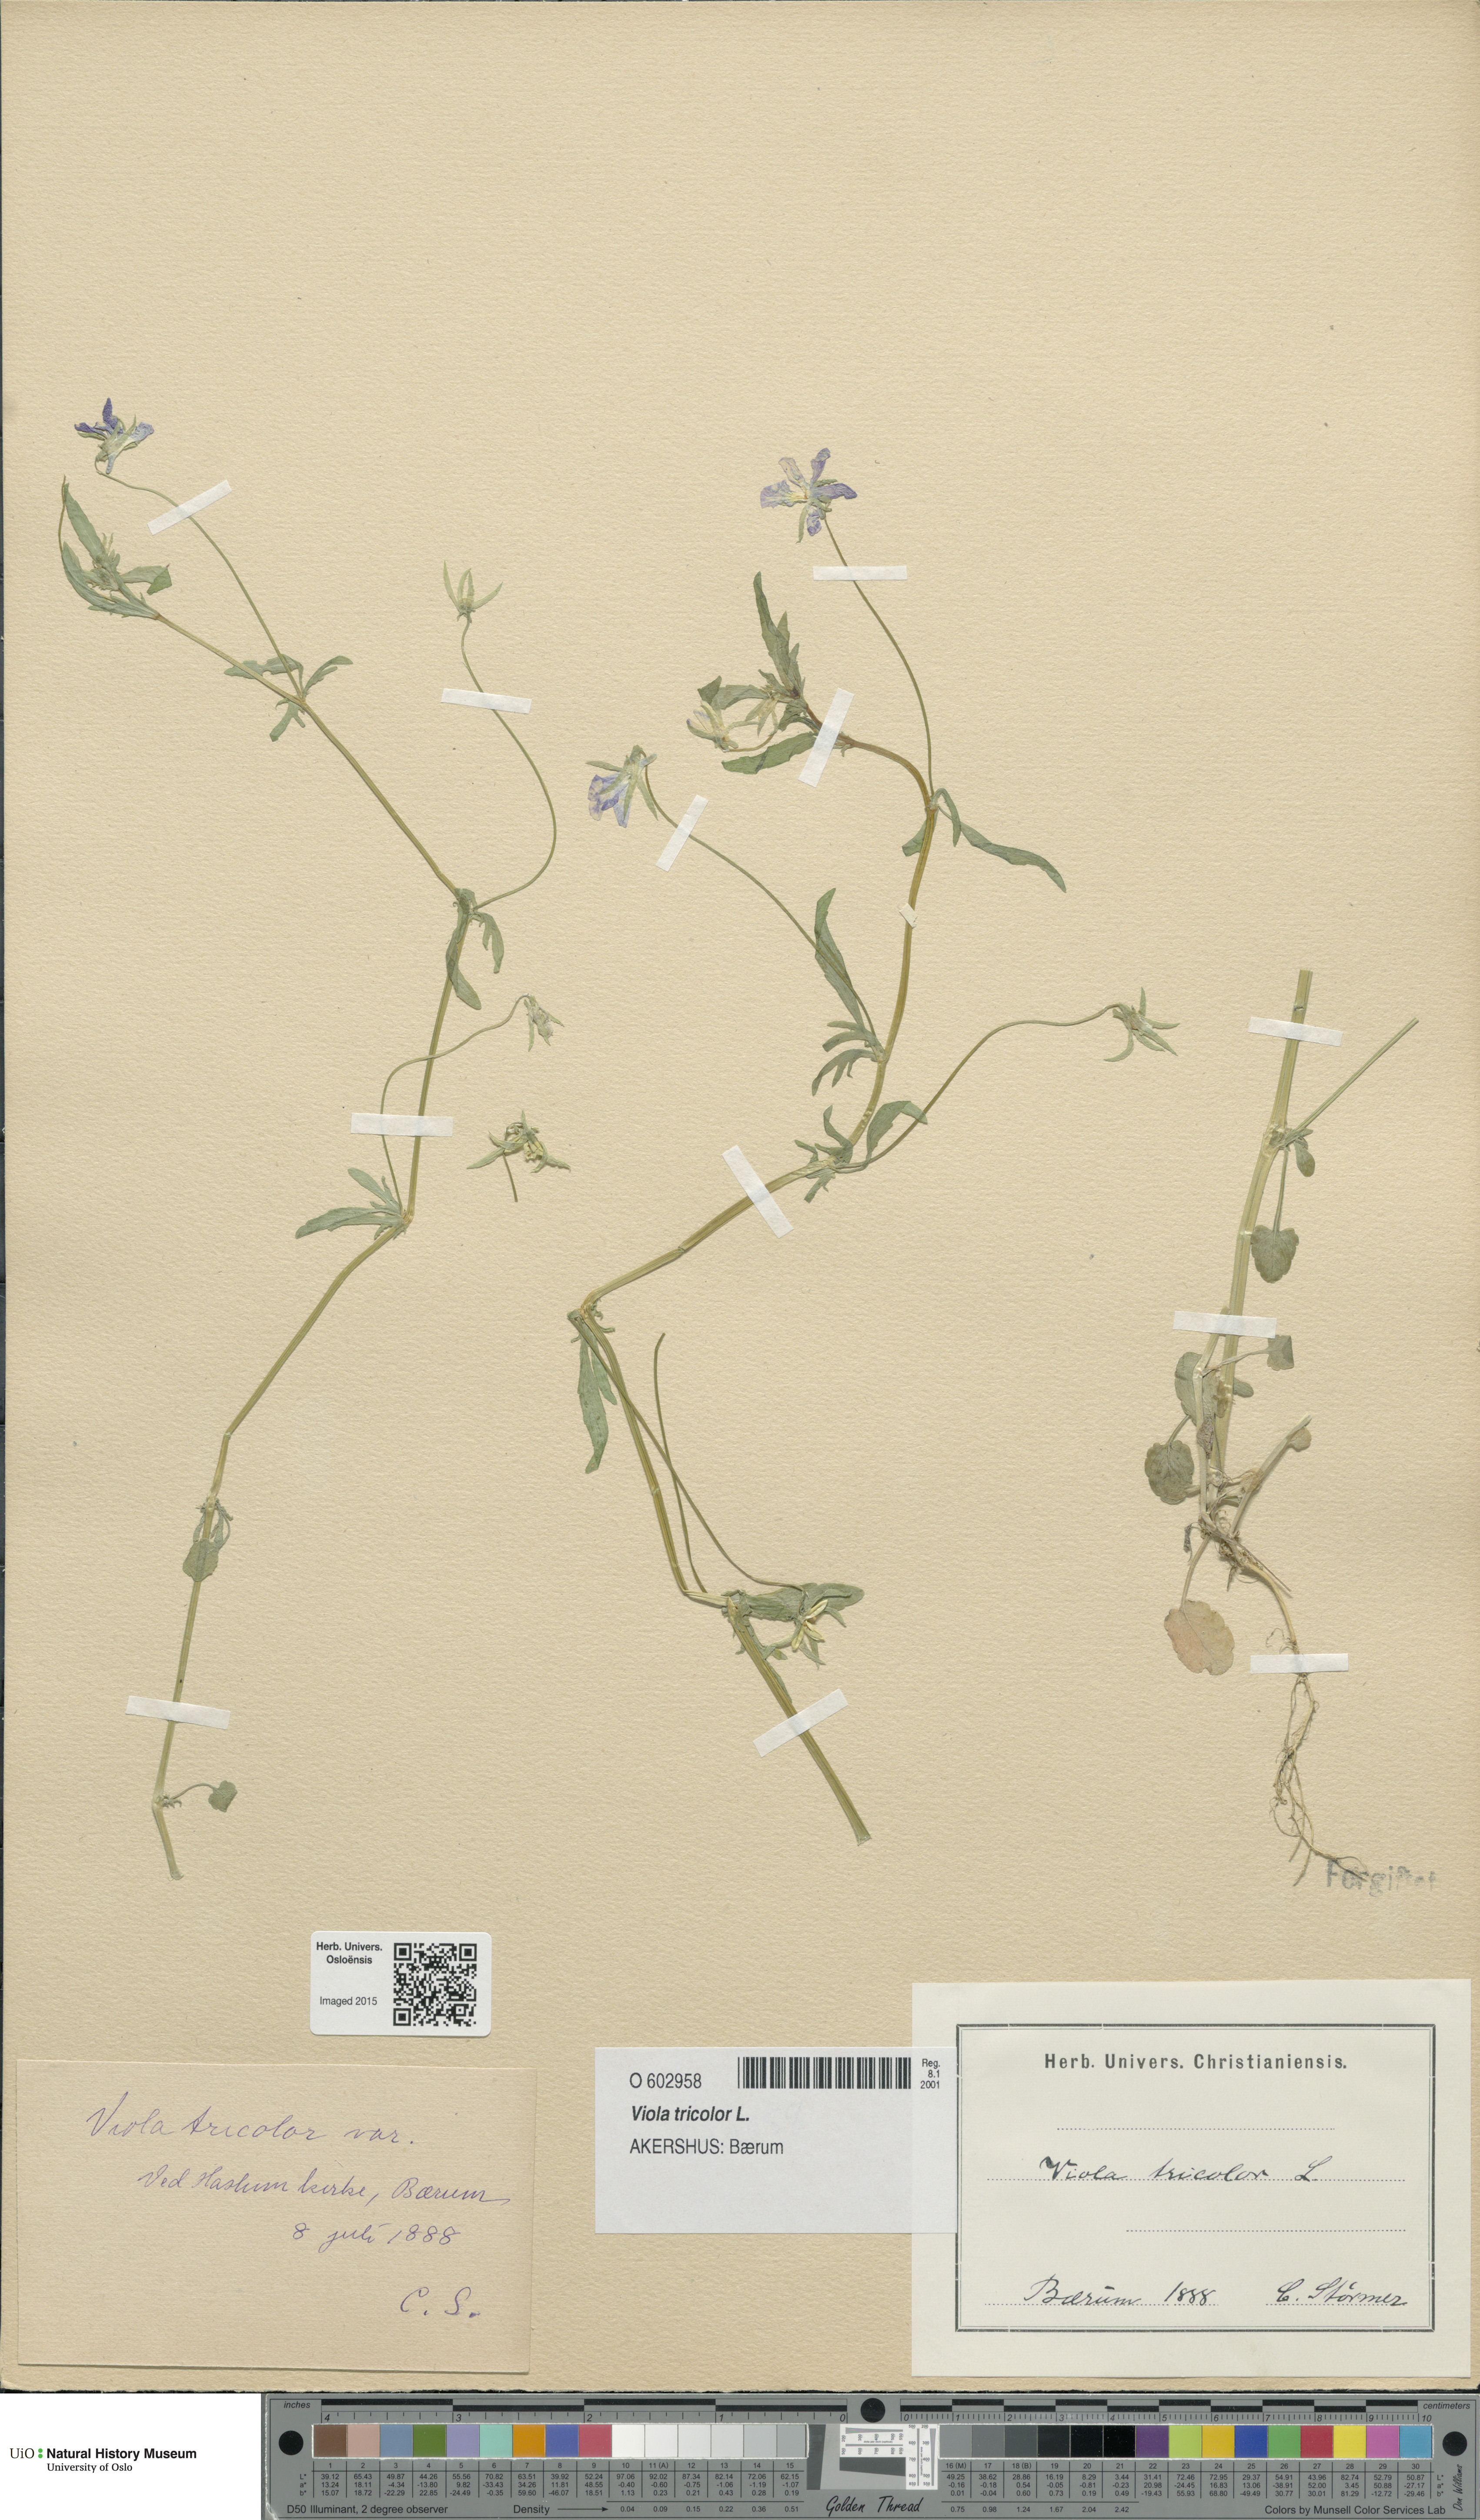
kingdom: Plantae
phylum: Tracheophyta
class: Magnoliopsida
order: Malpighiales
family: Violaceae
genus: Viola
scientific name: Viola tricolor
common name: Pansy
